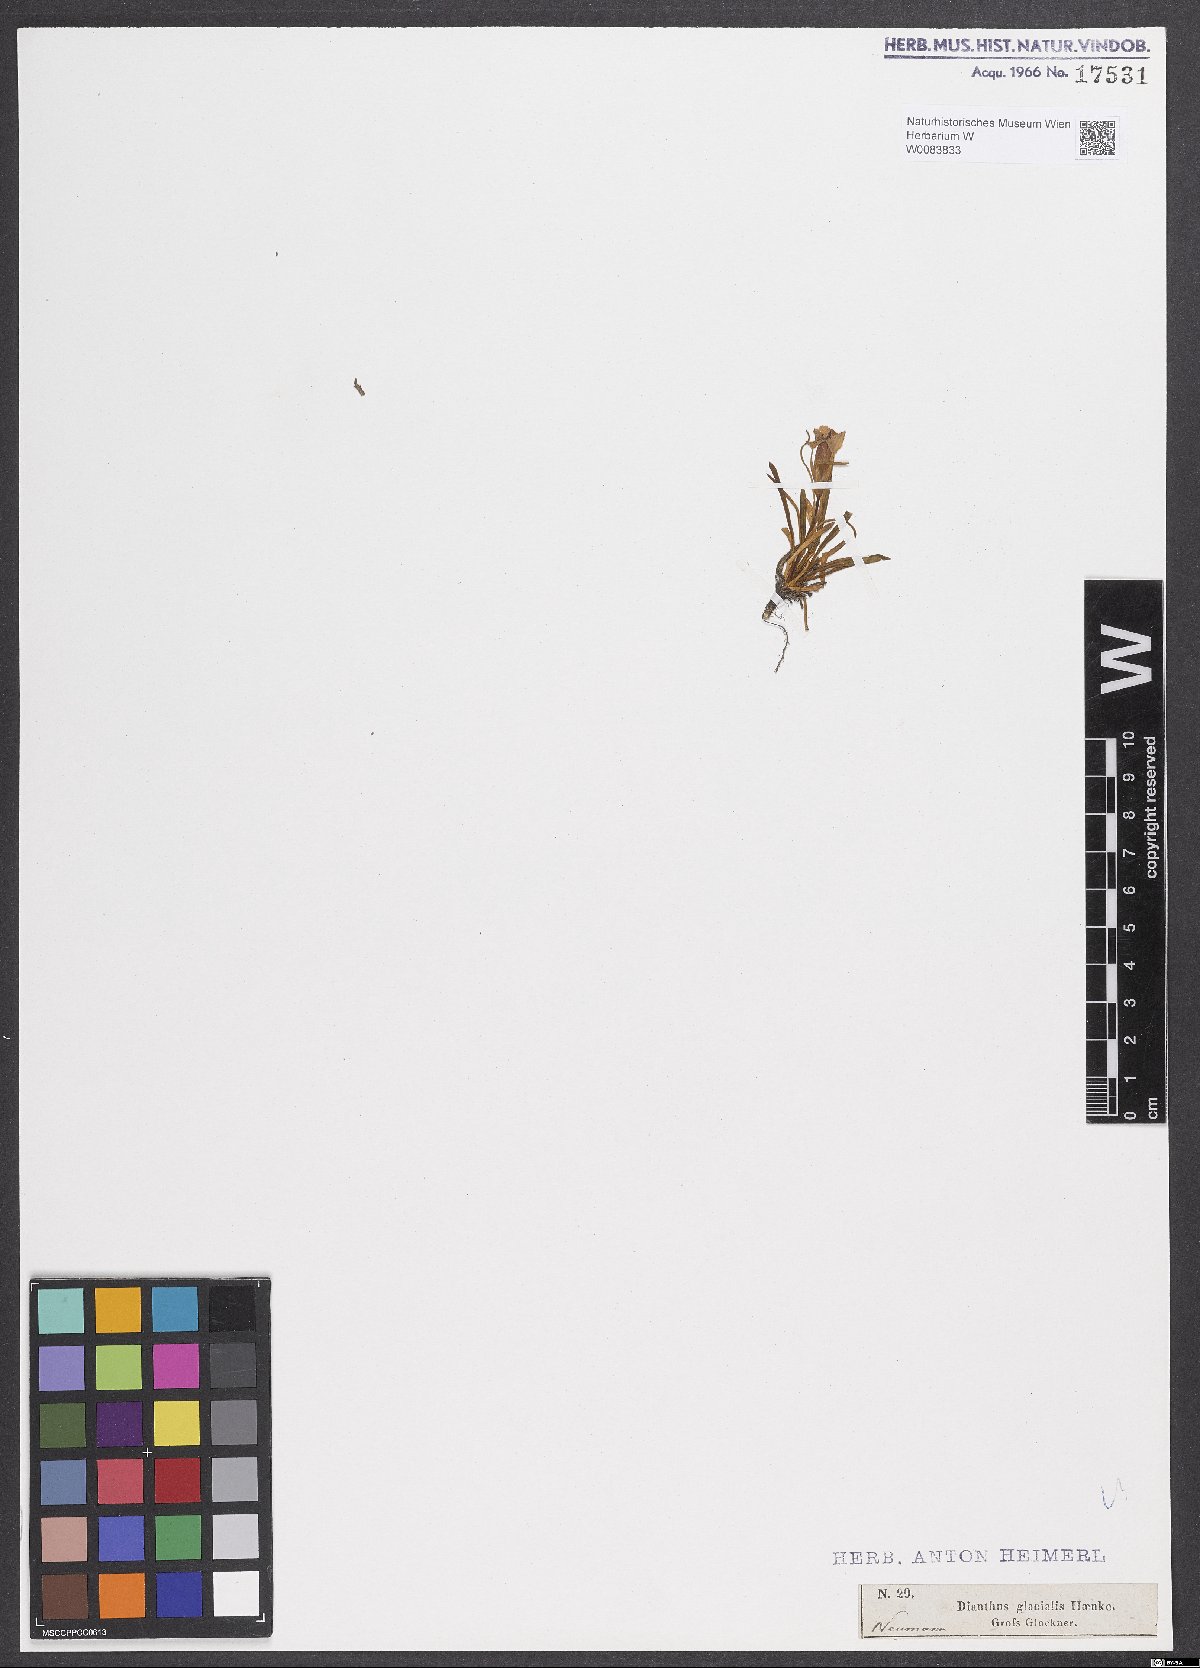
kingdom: Plantae
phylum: Tracheophyta
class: Magnoliopsida
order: Caryophyllales
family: Caryophyllaceae
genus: Dianthus
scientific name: Dianthus glacialis
